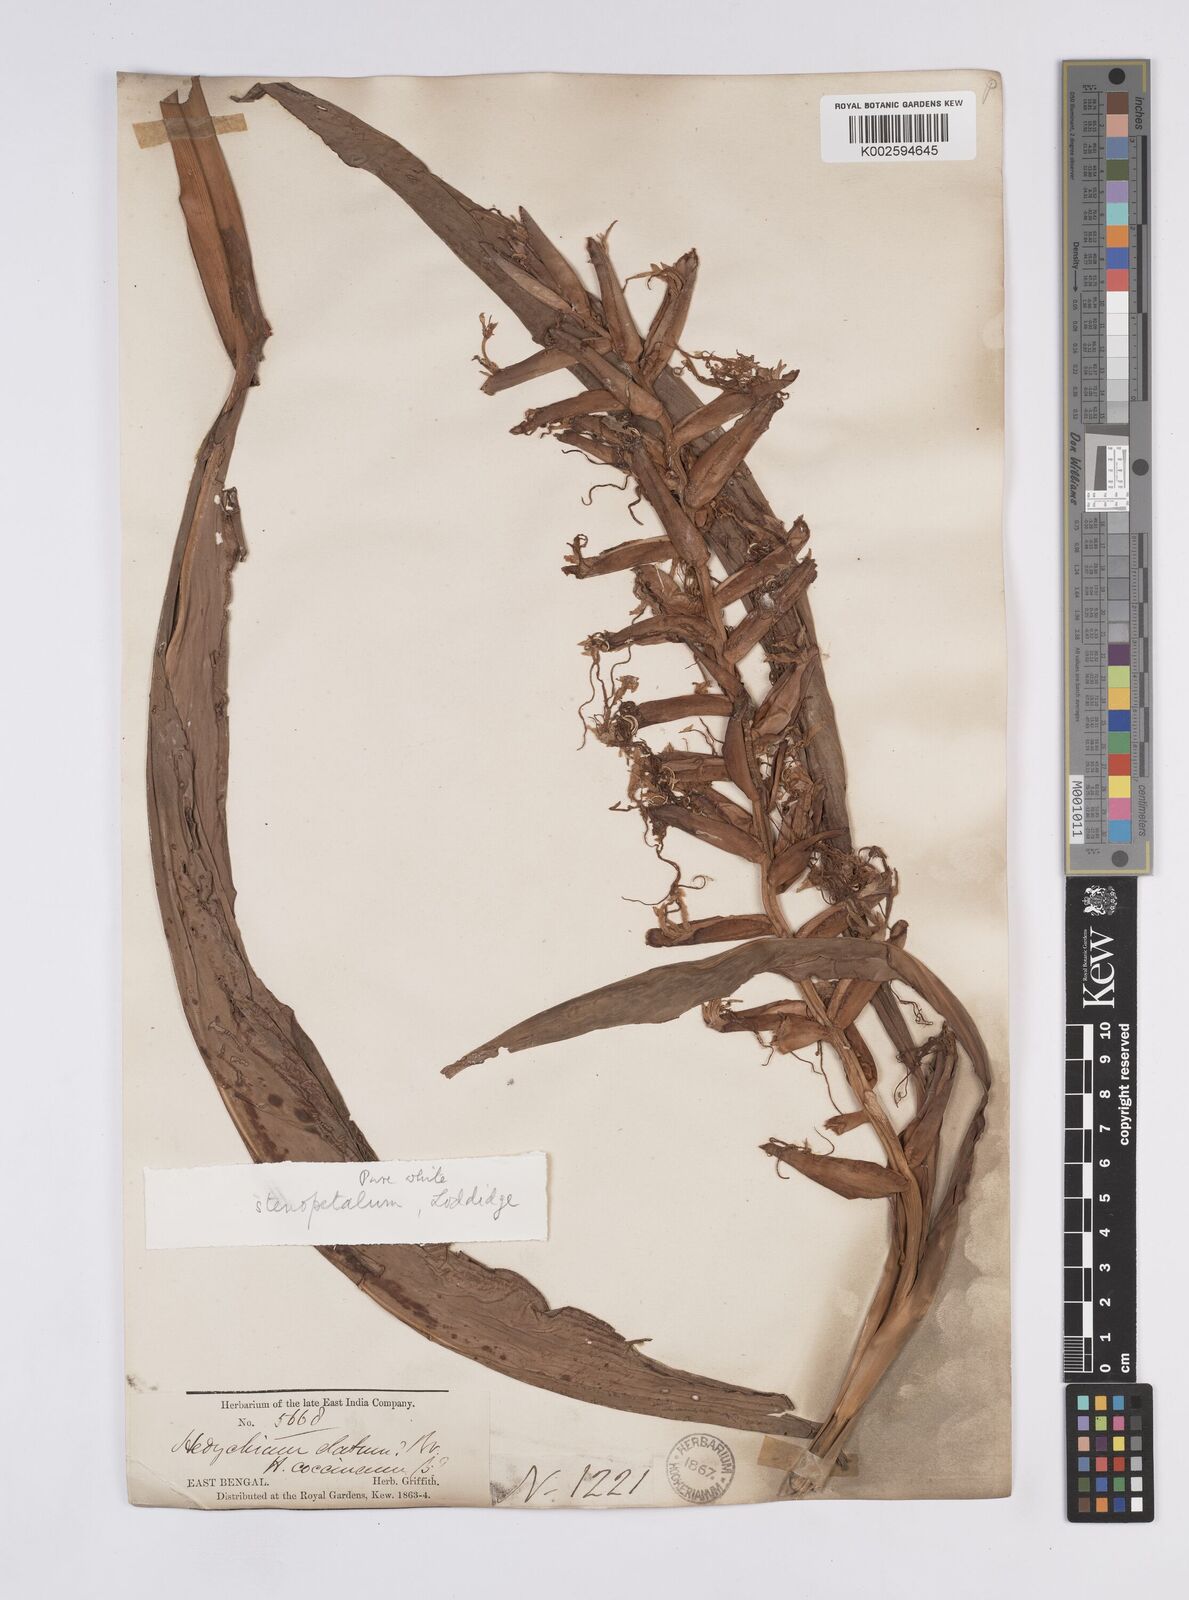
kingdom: Plantae
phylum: Tracheophyta
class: Liliopsida
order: Zingiberales
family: Zingiberaceae
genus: Hedychium
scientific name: Hedychium stenopetalum
